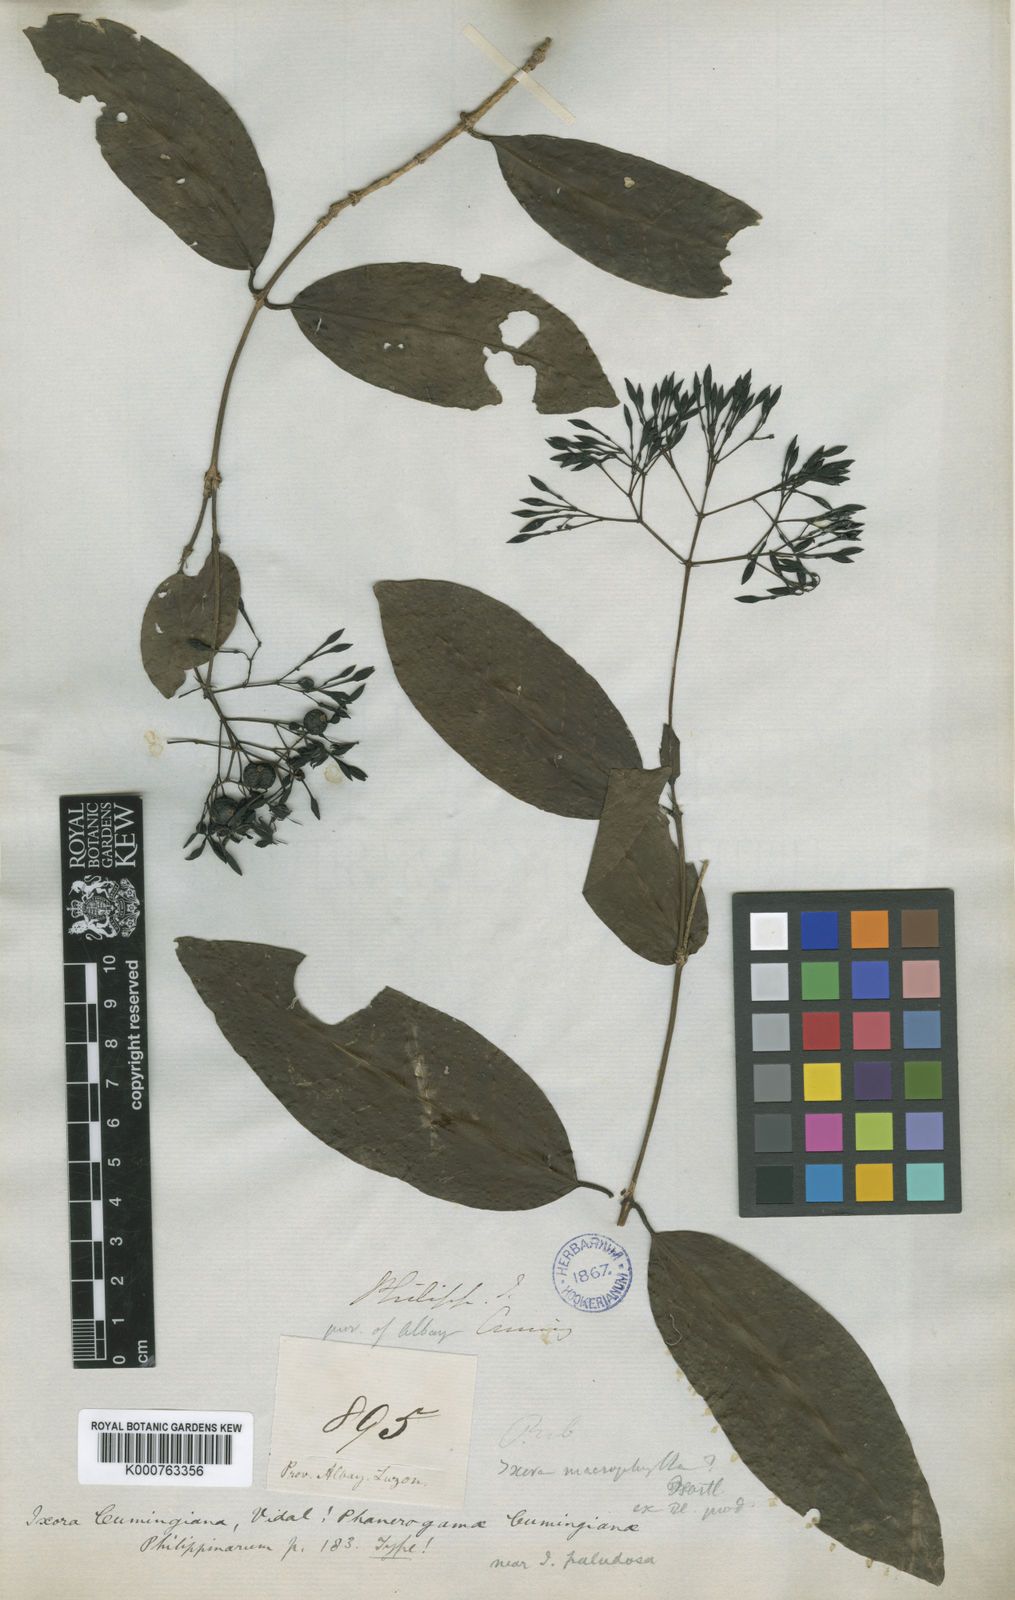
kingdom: Plantae
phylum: Tracheophyta
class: Magnoliopsida
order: Gentianales
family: Rubiaceae
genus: Ixora
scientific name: Ixora cumingiana
